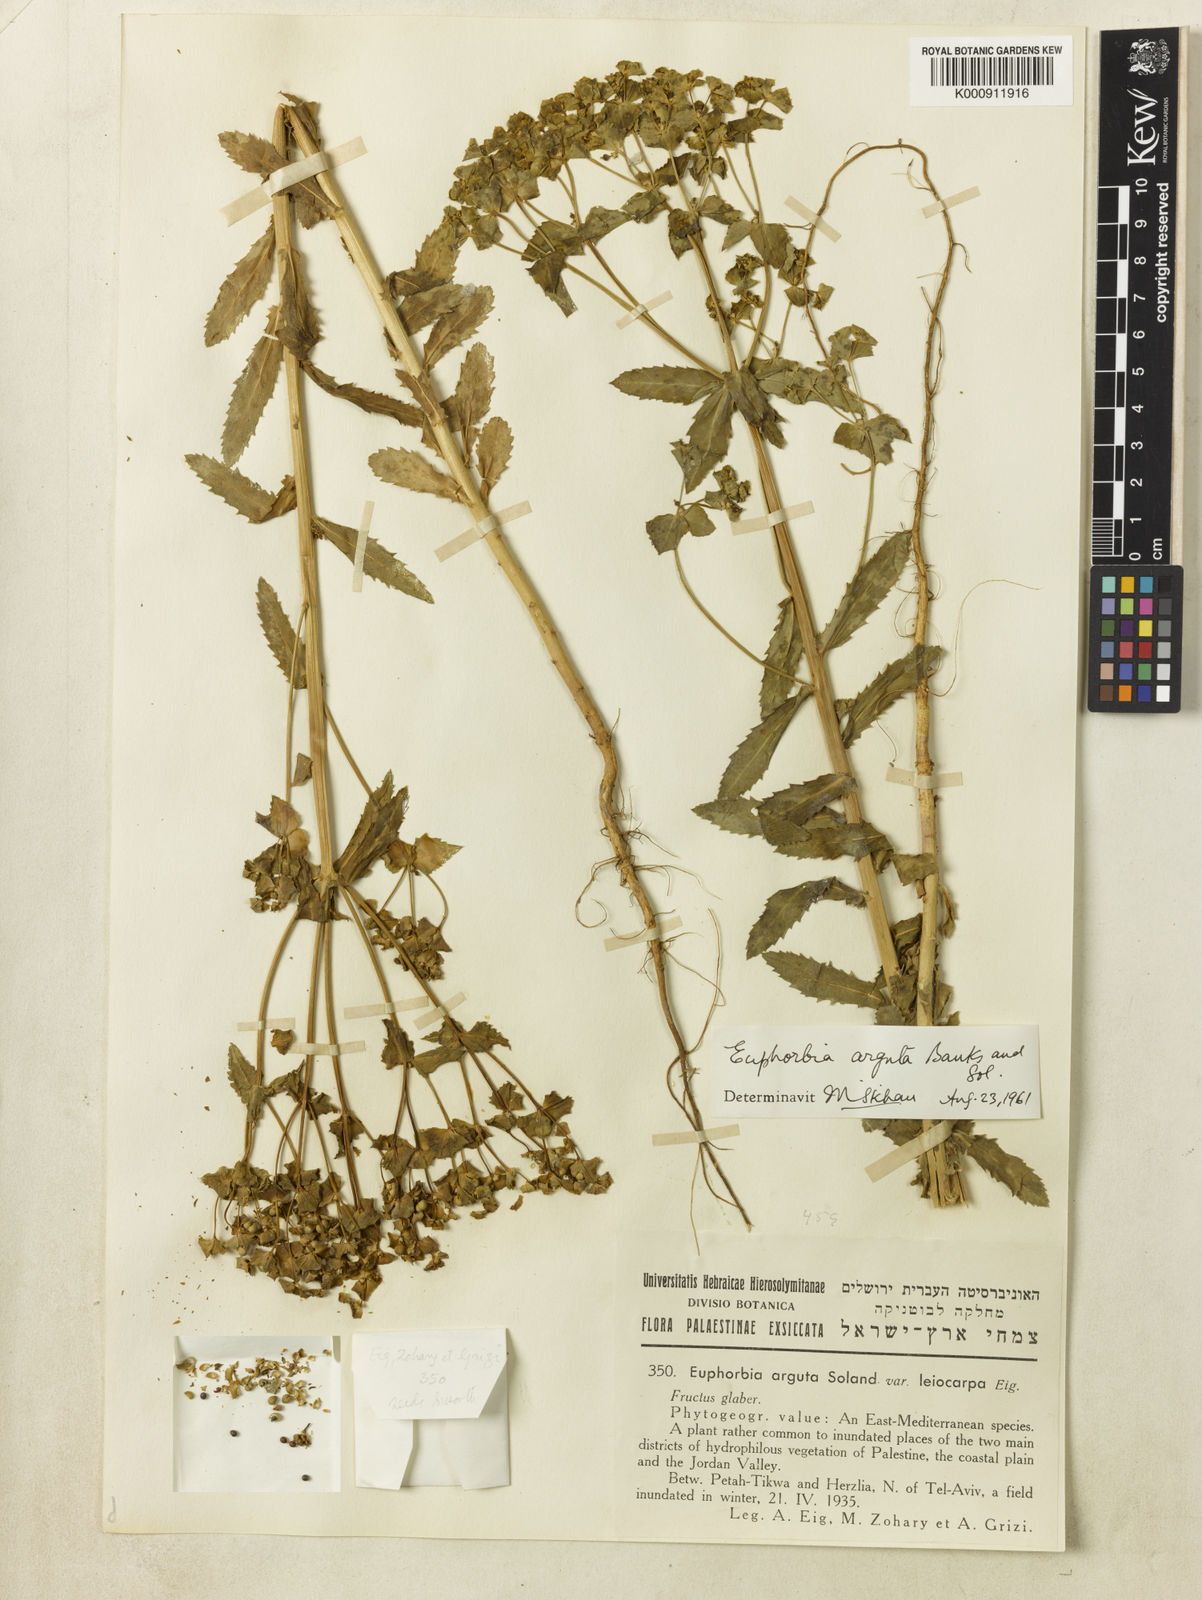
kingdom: Plantae
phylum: Tracheophyta
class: Magnoliopsida
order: Malpighiales
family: Euphorbiaceae
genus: Euphorbia
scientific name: Euphorbia arguta
